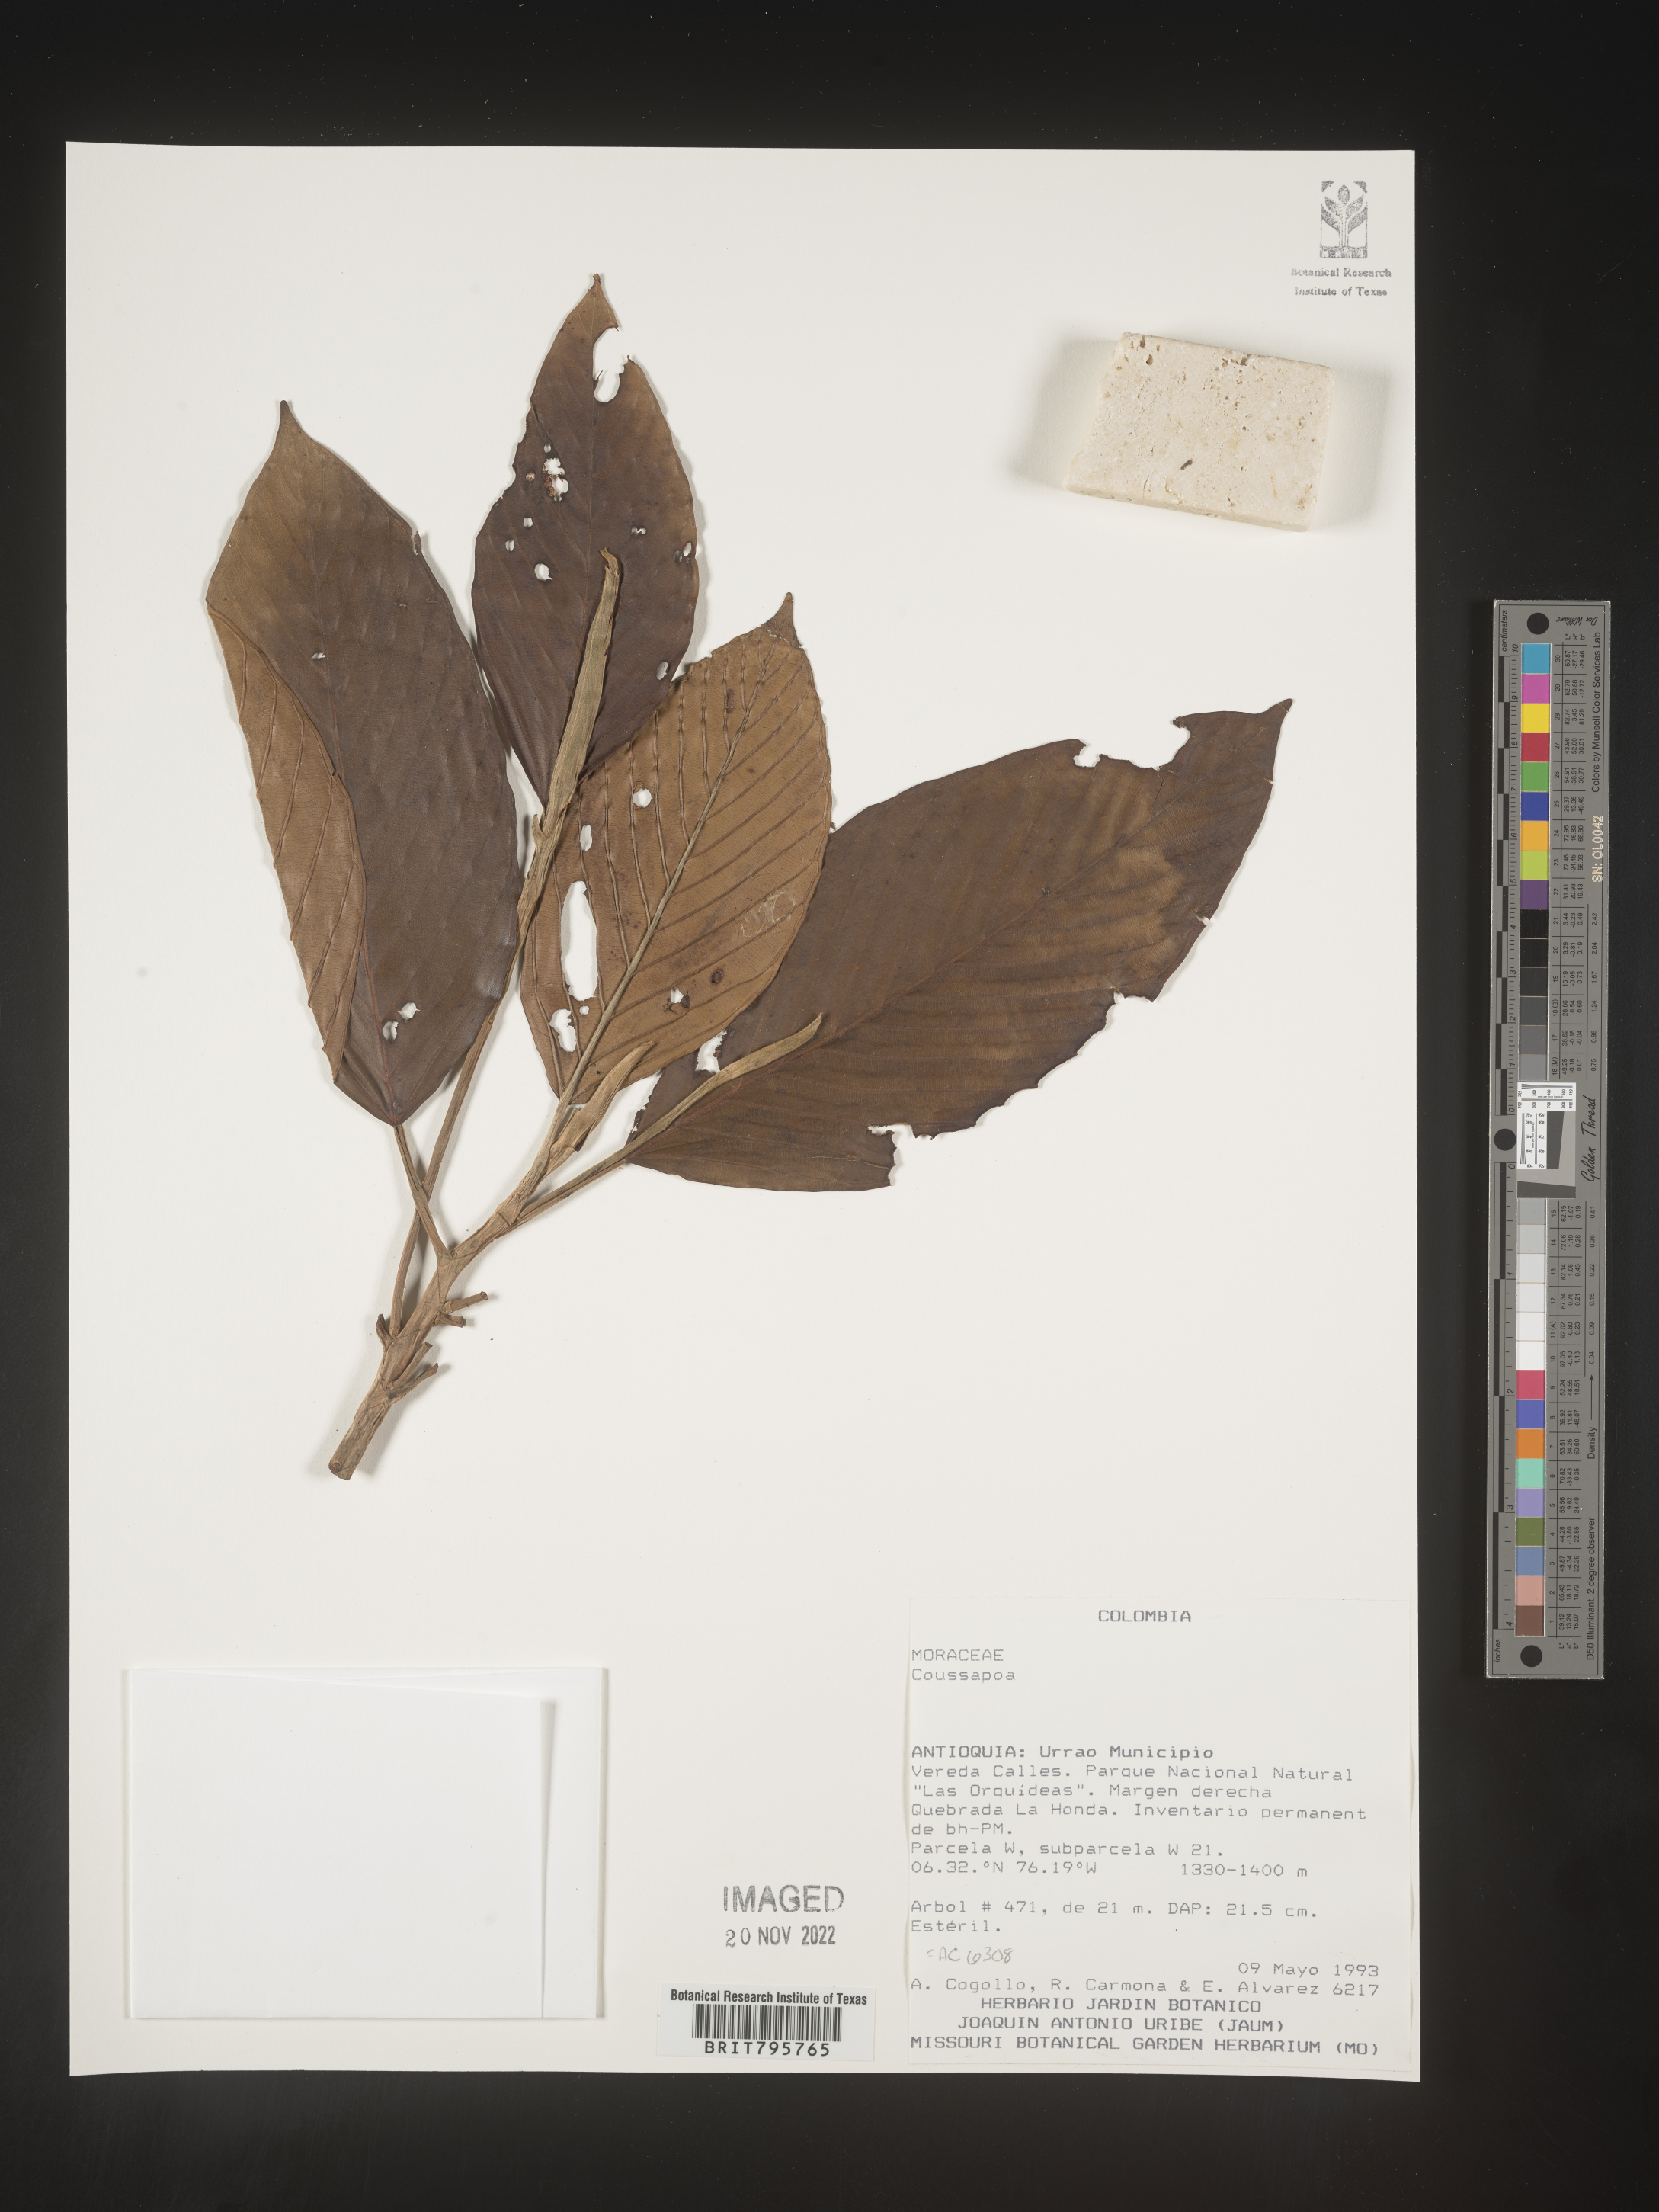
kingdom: Plantae
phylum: Tracheophyta
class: Magnoliopsida
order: Rosales
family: Urticaceae
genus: Coussapoa
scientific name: Coussapoa
